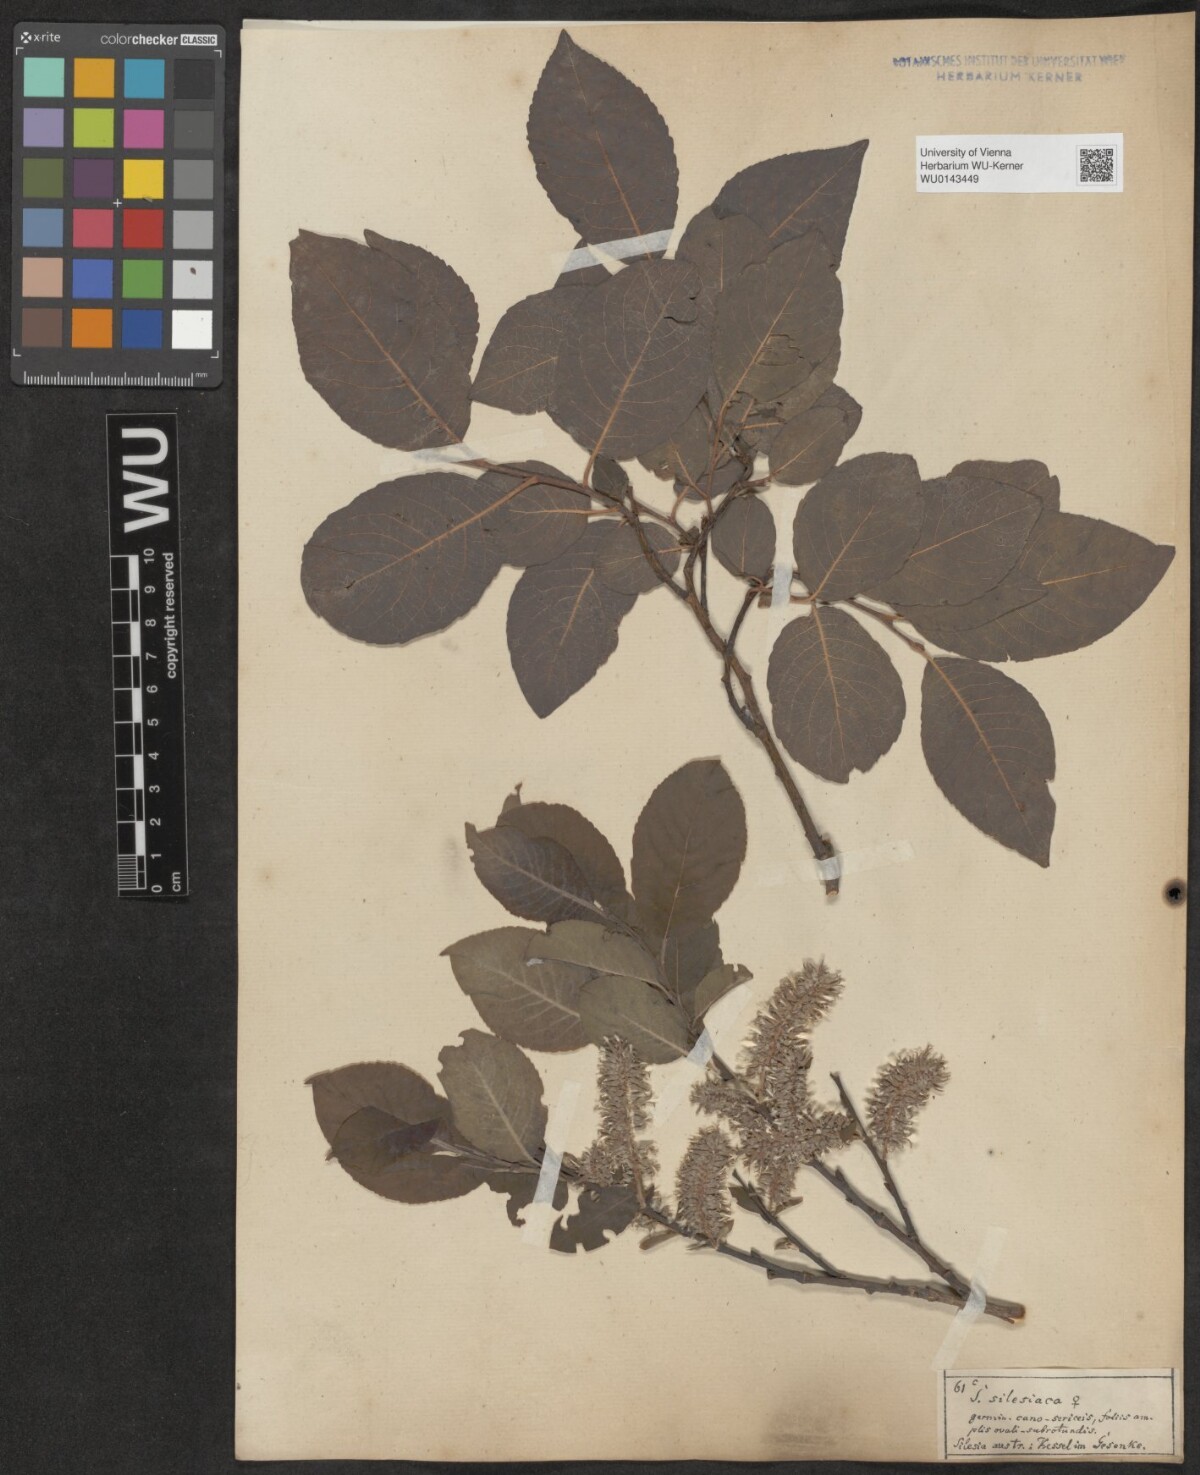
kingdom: Plantae
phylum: Tracheophyta
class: Magnoliopsida
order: Malpighiales
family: Salicaceae
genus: Salix
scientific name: Salix silesiaca
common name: Silesian willow
